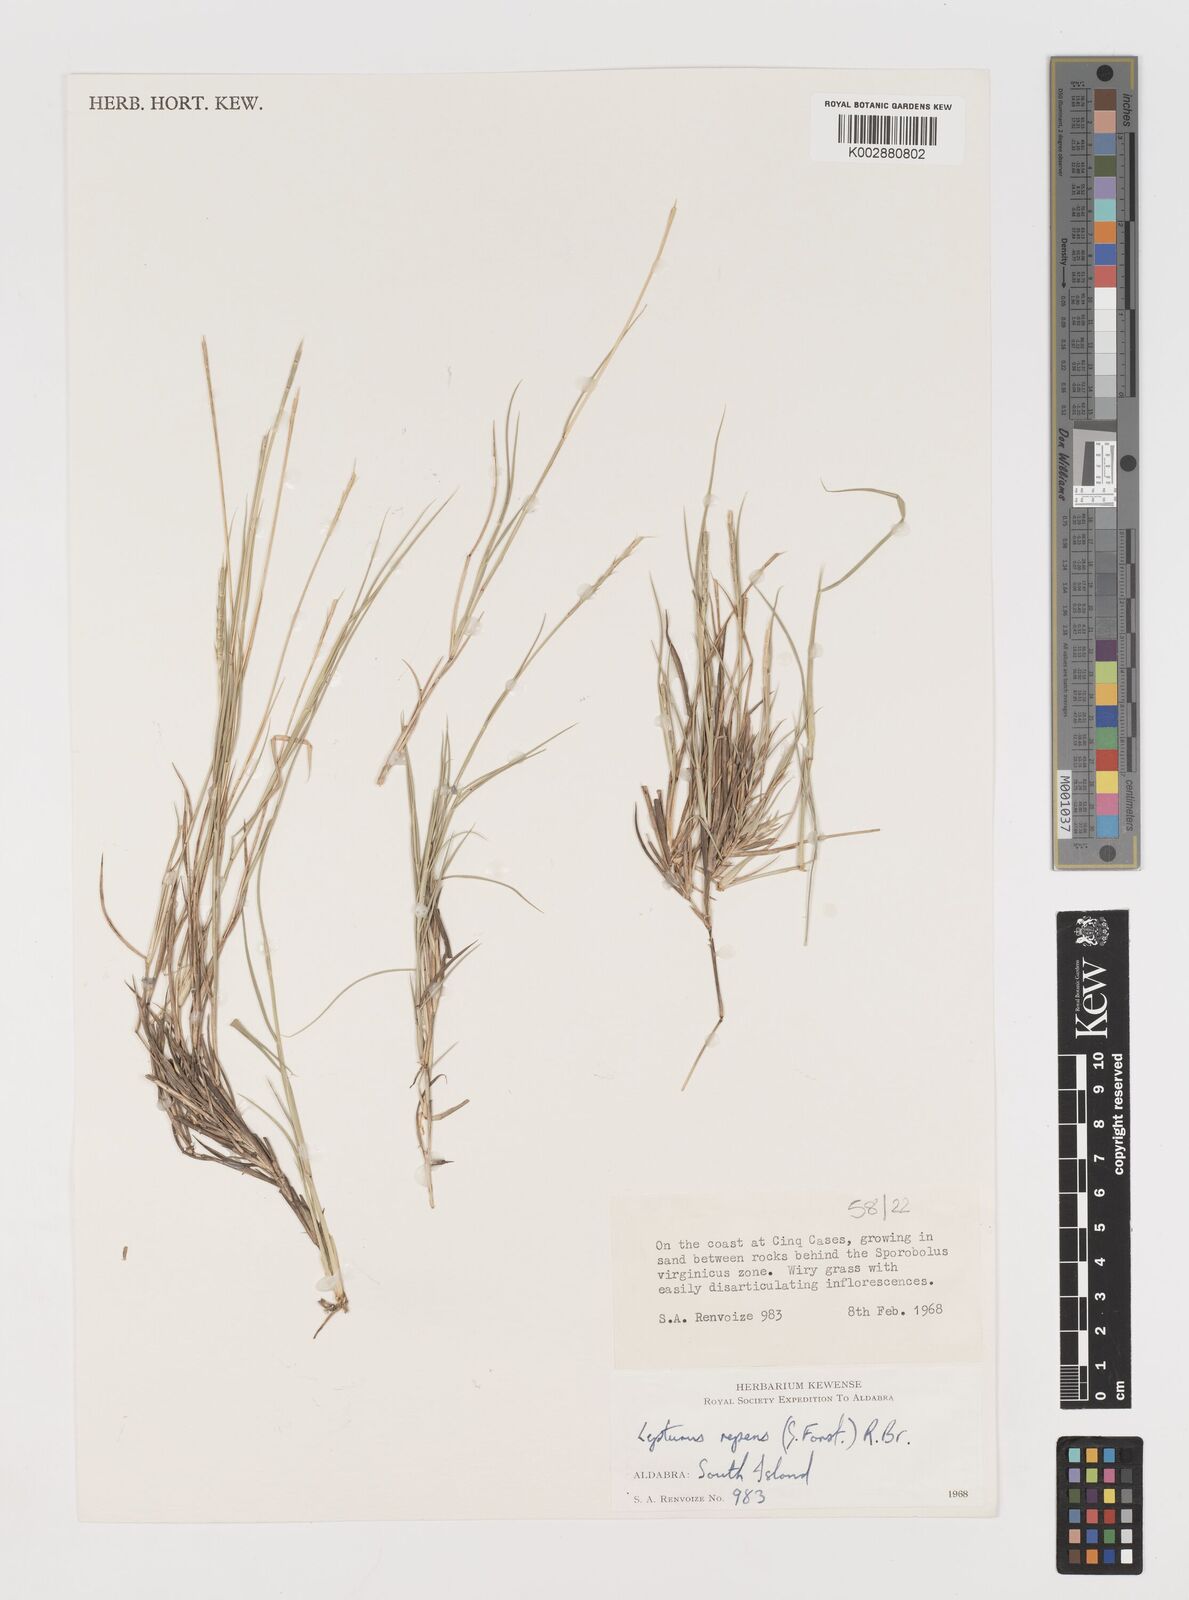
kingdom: Plantae
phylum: Tracheophyta
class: Liliopsida
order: Poales
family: Poaceae
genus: Lepturus
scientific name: Lepturus repens
